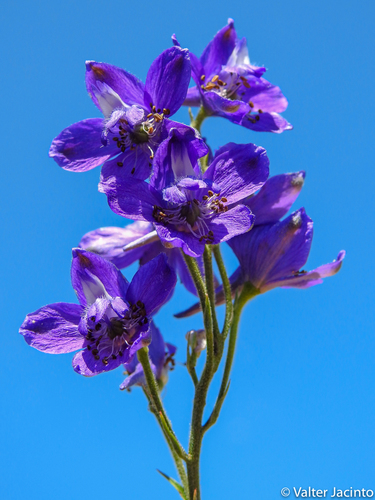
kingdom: Plantae
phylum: Tracheophyta
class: Magnoliopsida
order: Ranunculales
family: Ranunculaceae
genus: Delphinium
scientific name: Delphinium pentagynum
